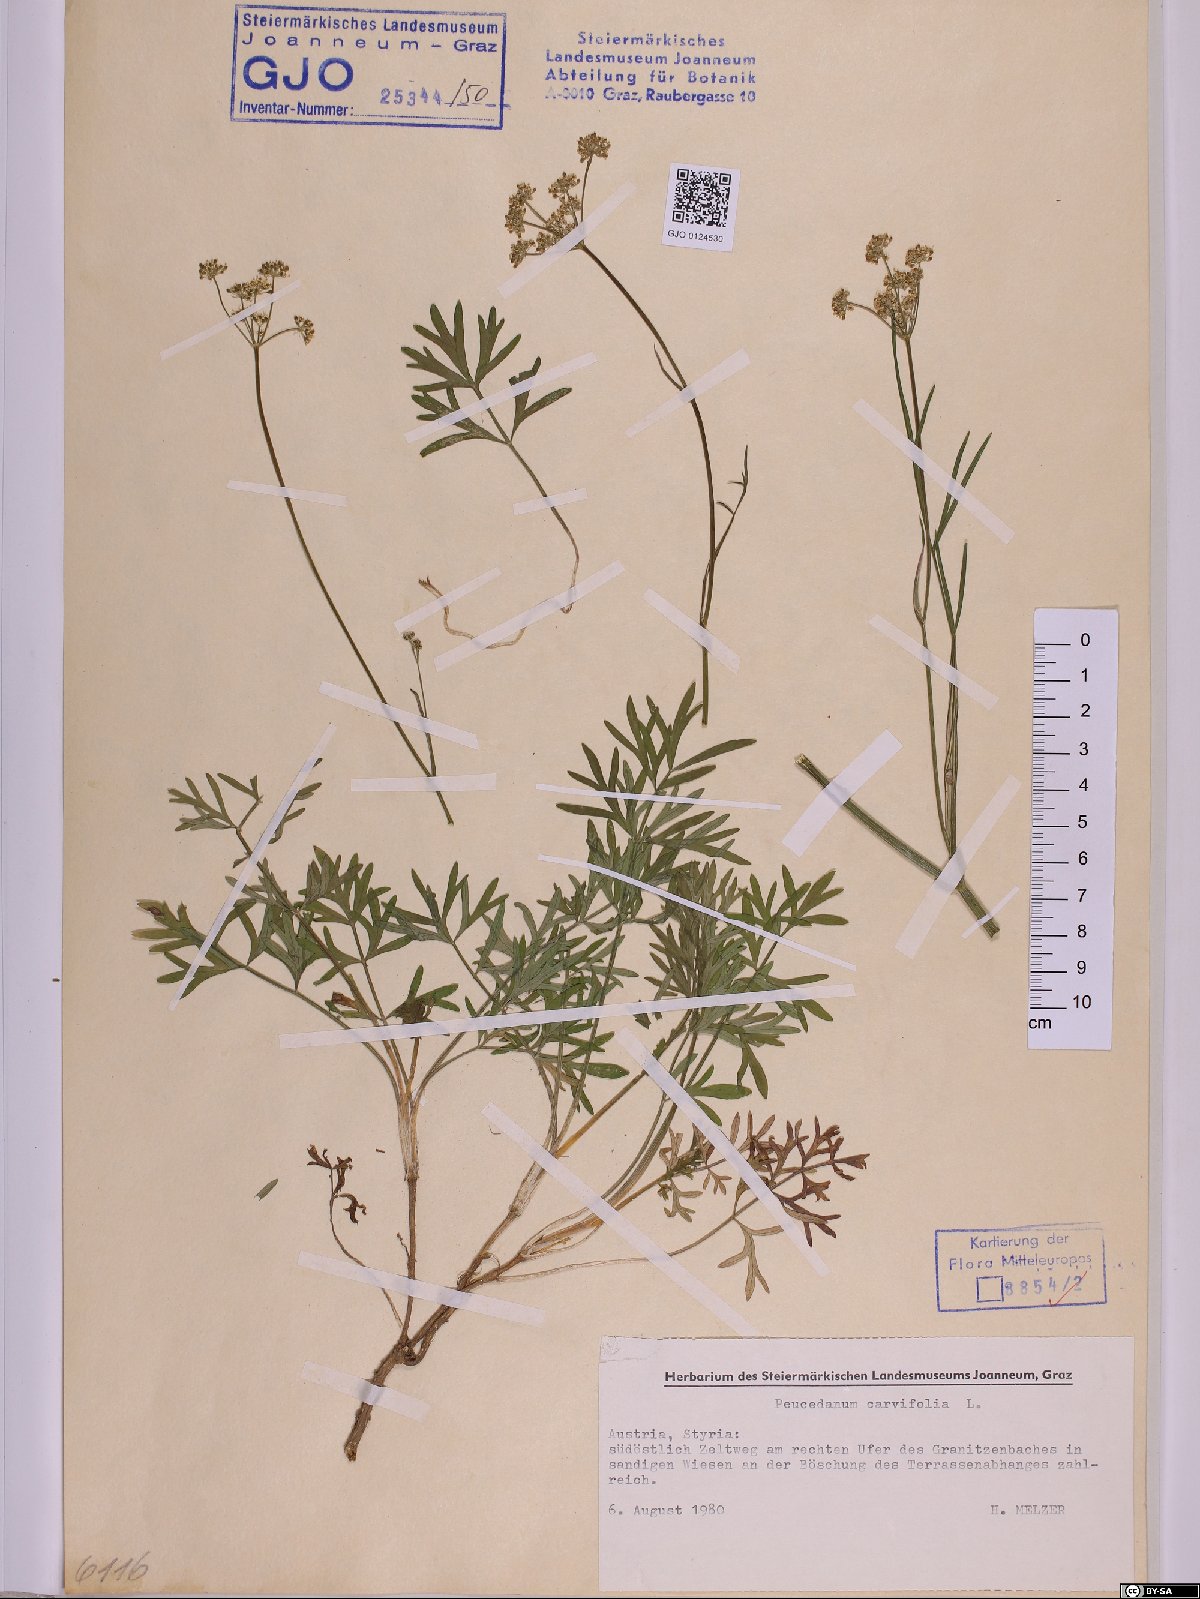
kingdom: Plantae
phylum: Tracheophyta
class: Magnoliopsida
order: Apiales
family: Apiaceae
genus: Dichoropetalum
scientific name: Dichoropetalum carvifolia
